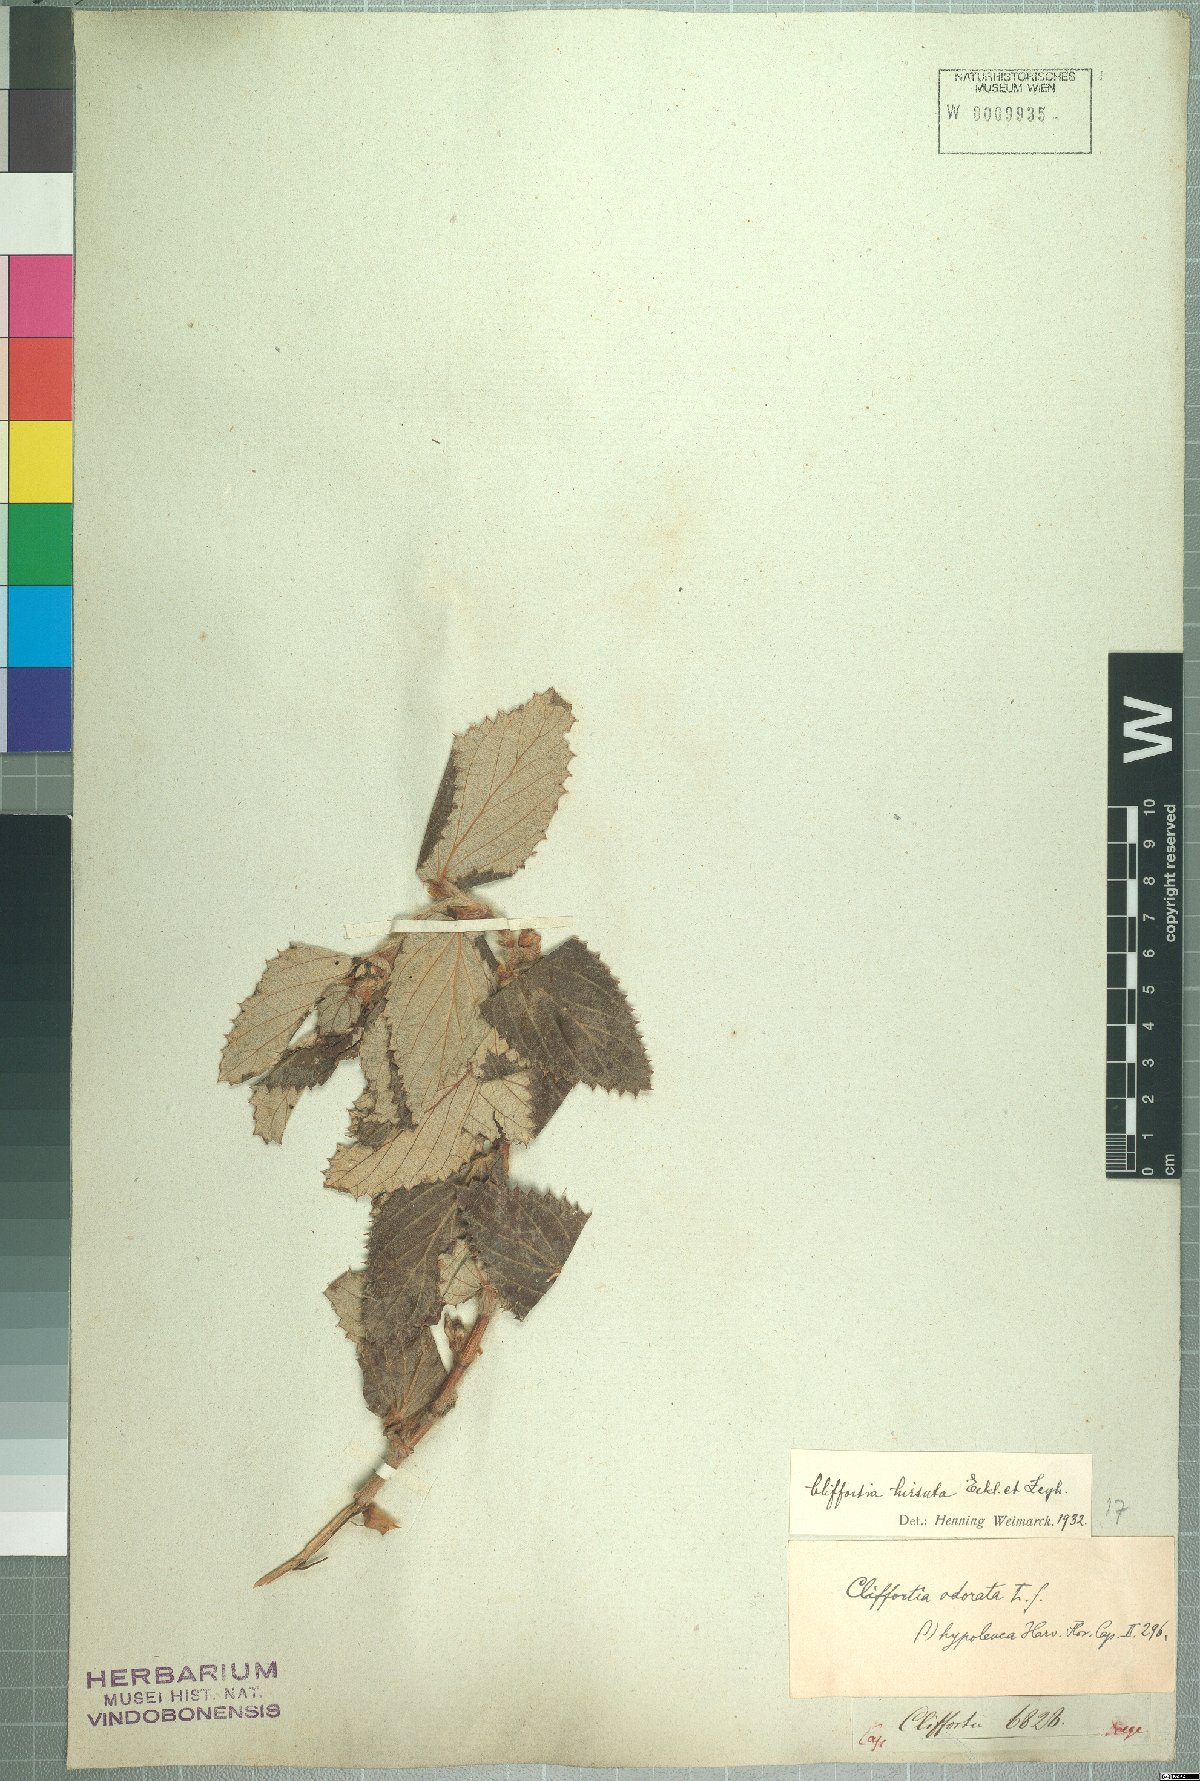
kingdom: Plantae
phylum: Tracheophyta
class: Magnoliopsida
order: Rosales
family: Rosaceae
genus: Cliffortia
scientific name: Cliffortia hirsuta
